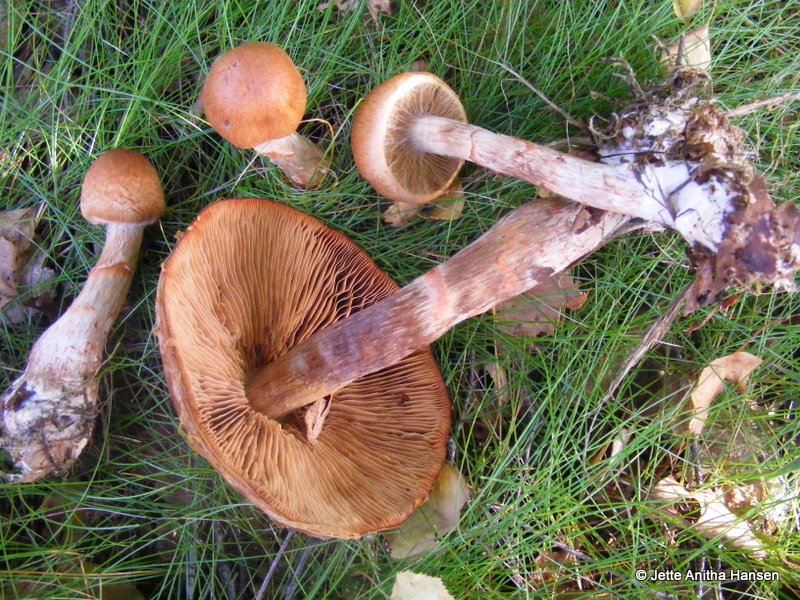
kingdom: Fungi
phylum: Basidiomycota
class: Agaricomycetes
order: Agaricales
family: Cortinariaceae
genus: Cortinarius
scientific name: Cortinarius armillatus
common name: cinnoberbæltet slørhat
